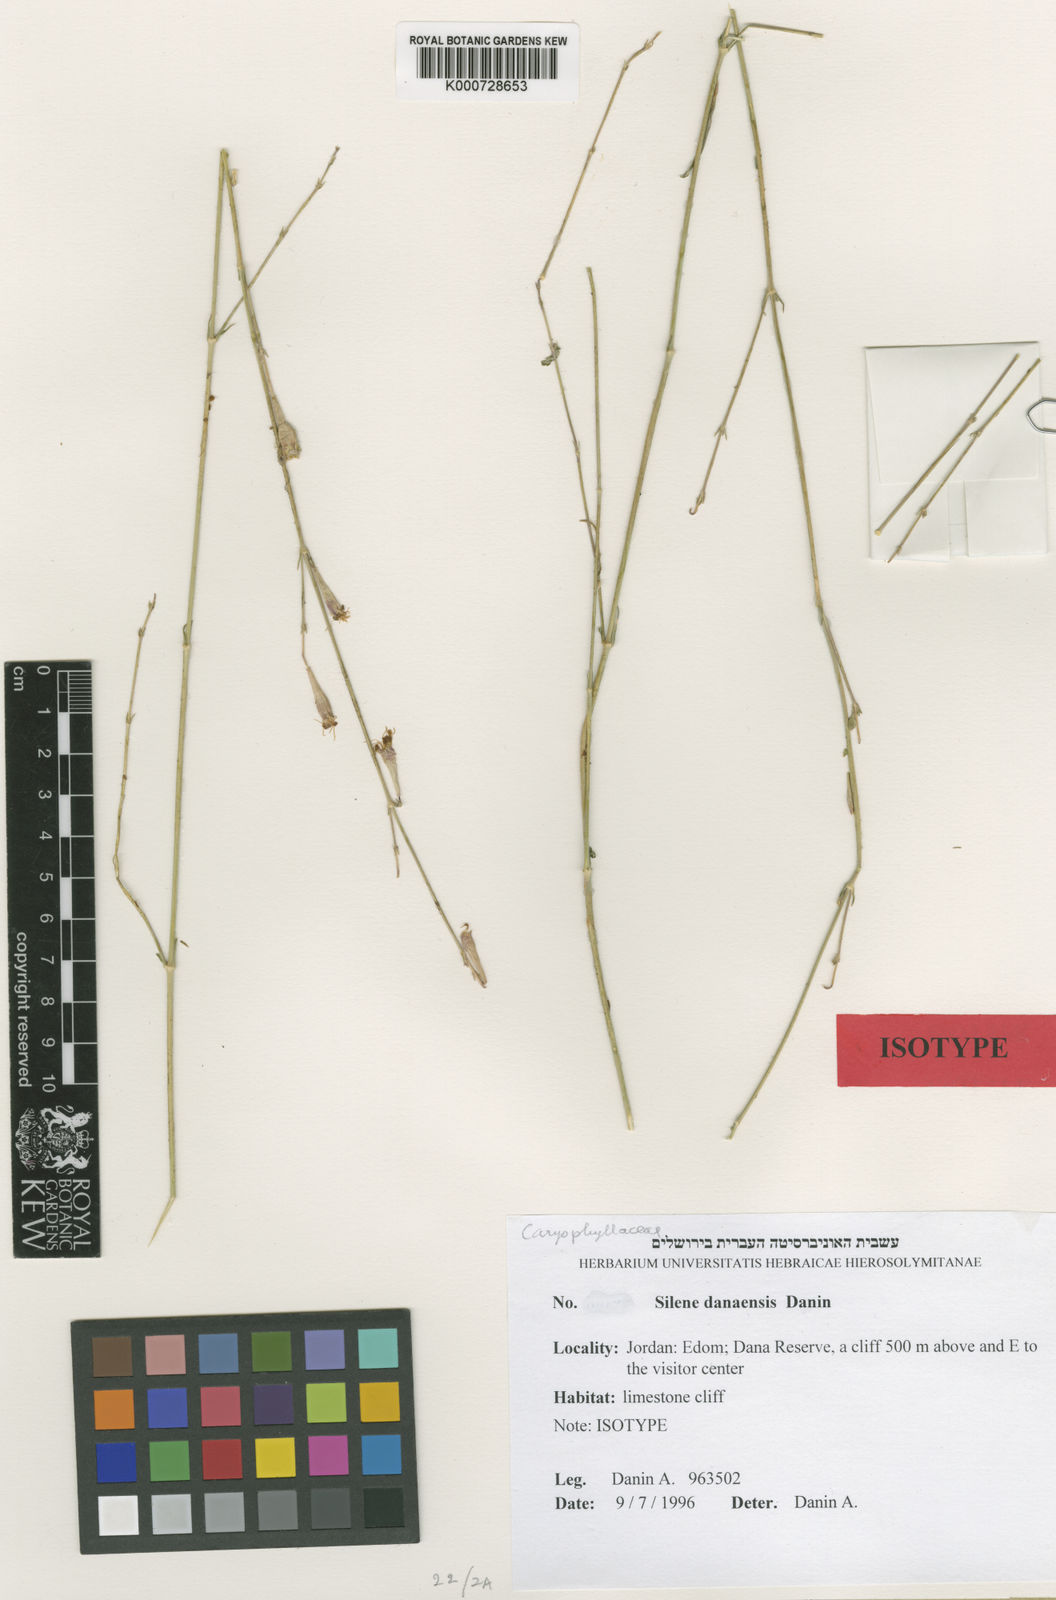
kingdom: Plantae
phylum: Tracheophyta
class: Magnoliopsida
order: Caryophyllales
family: Caryophyllaceae
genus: Silene
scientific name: Silene danaensis
